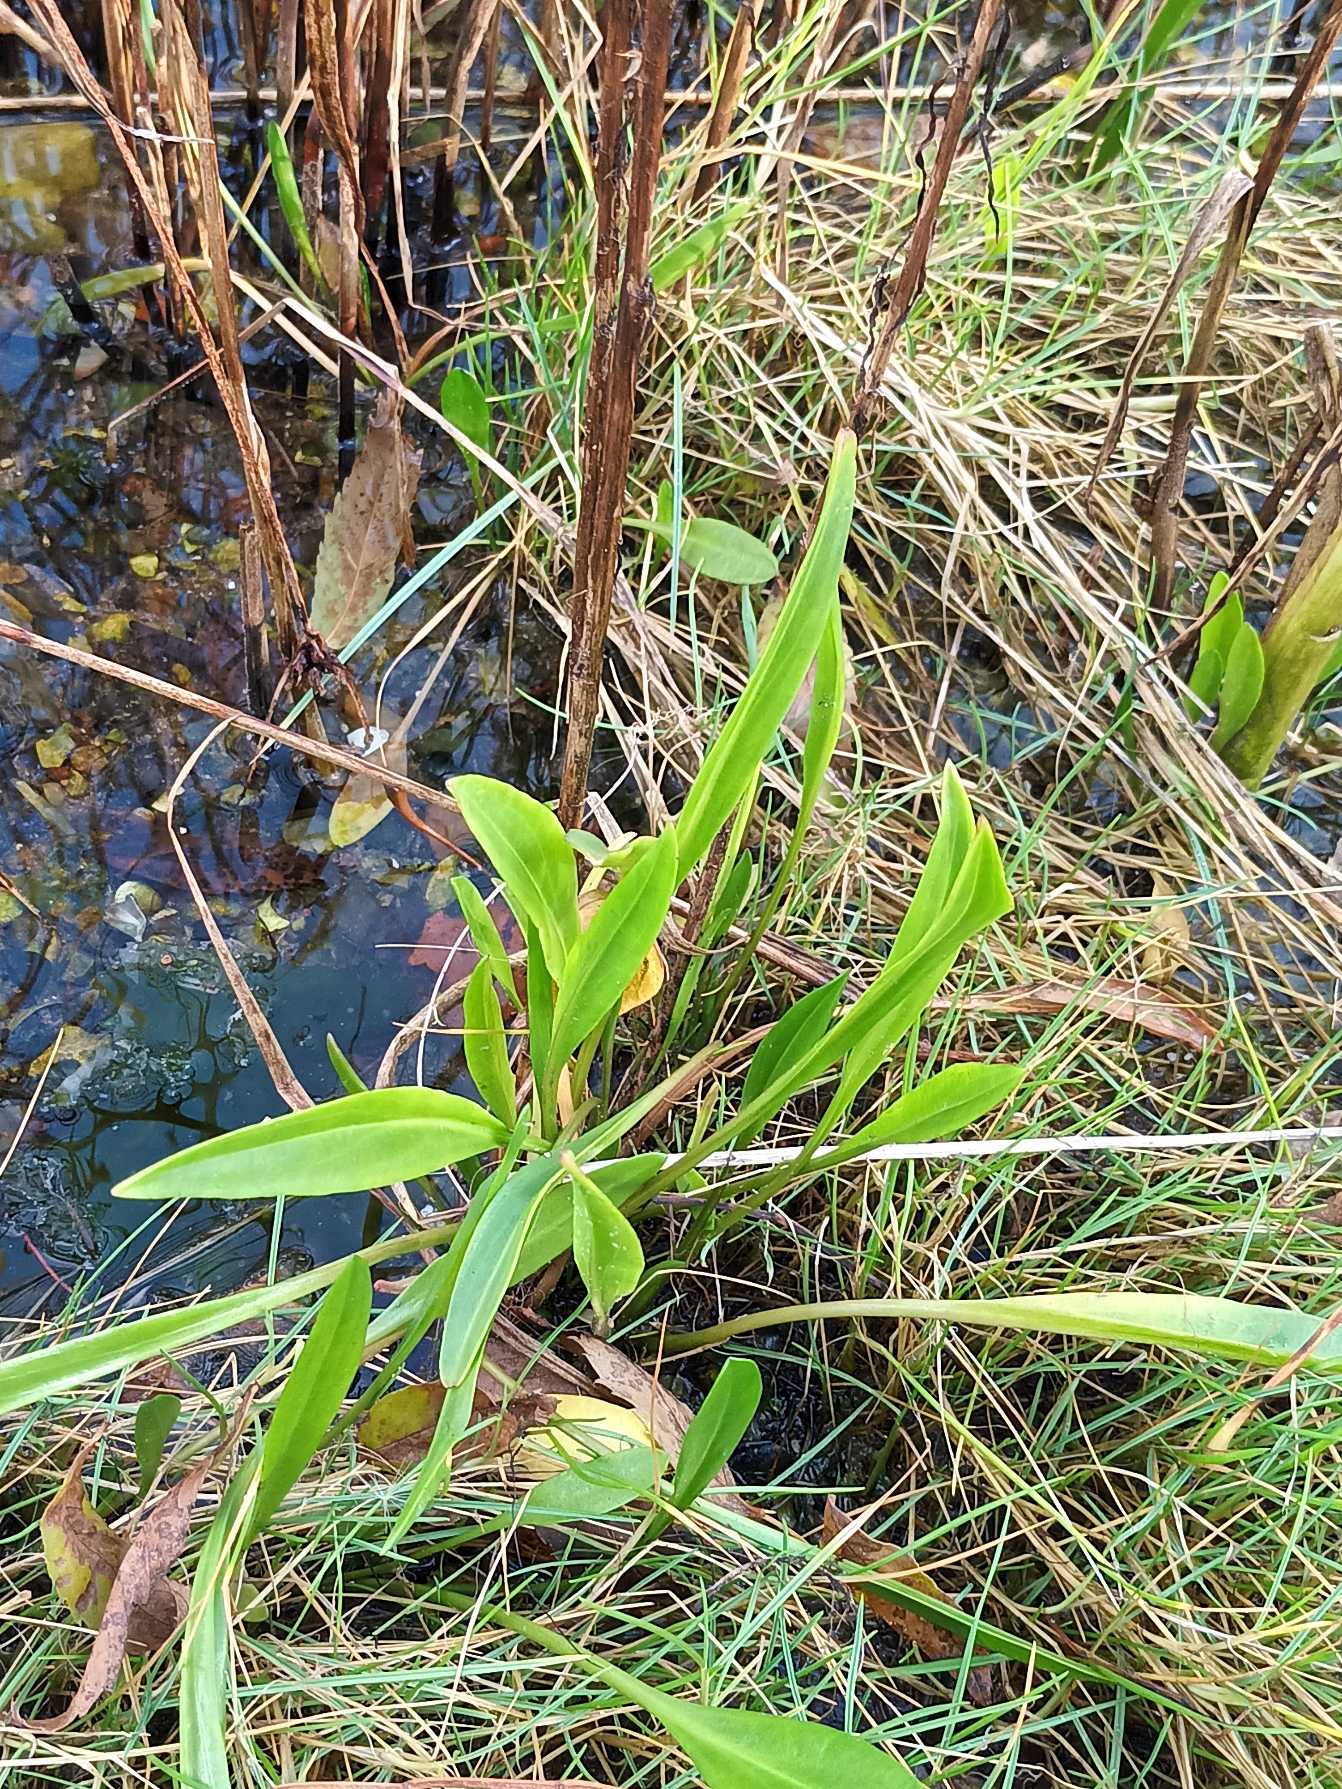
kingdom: Plantae
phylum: Tracheophyta
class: Magnoliopsida
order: Asterales
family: Asteraceae
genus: Tripolium
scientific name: Tripolium pannonicum
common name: Strandasters
